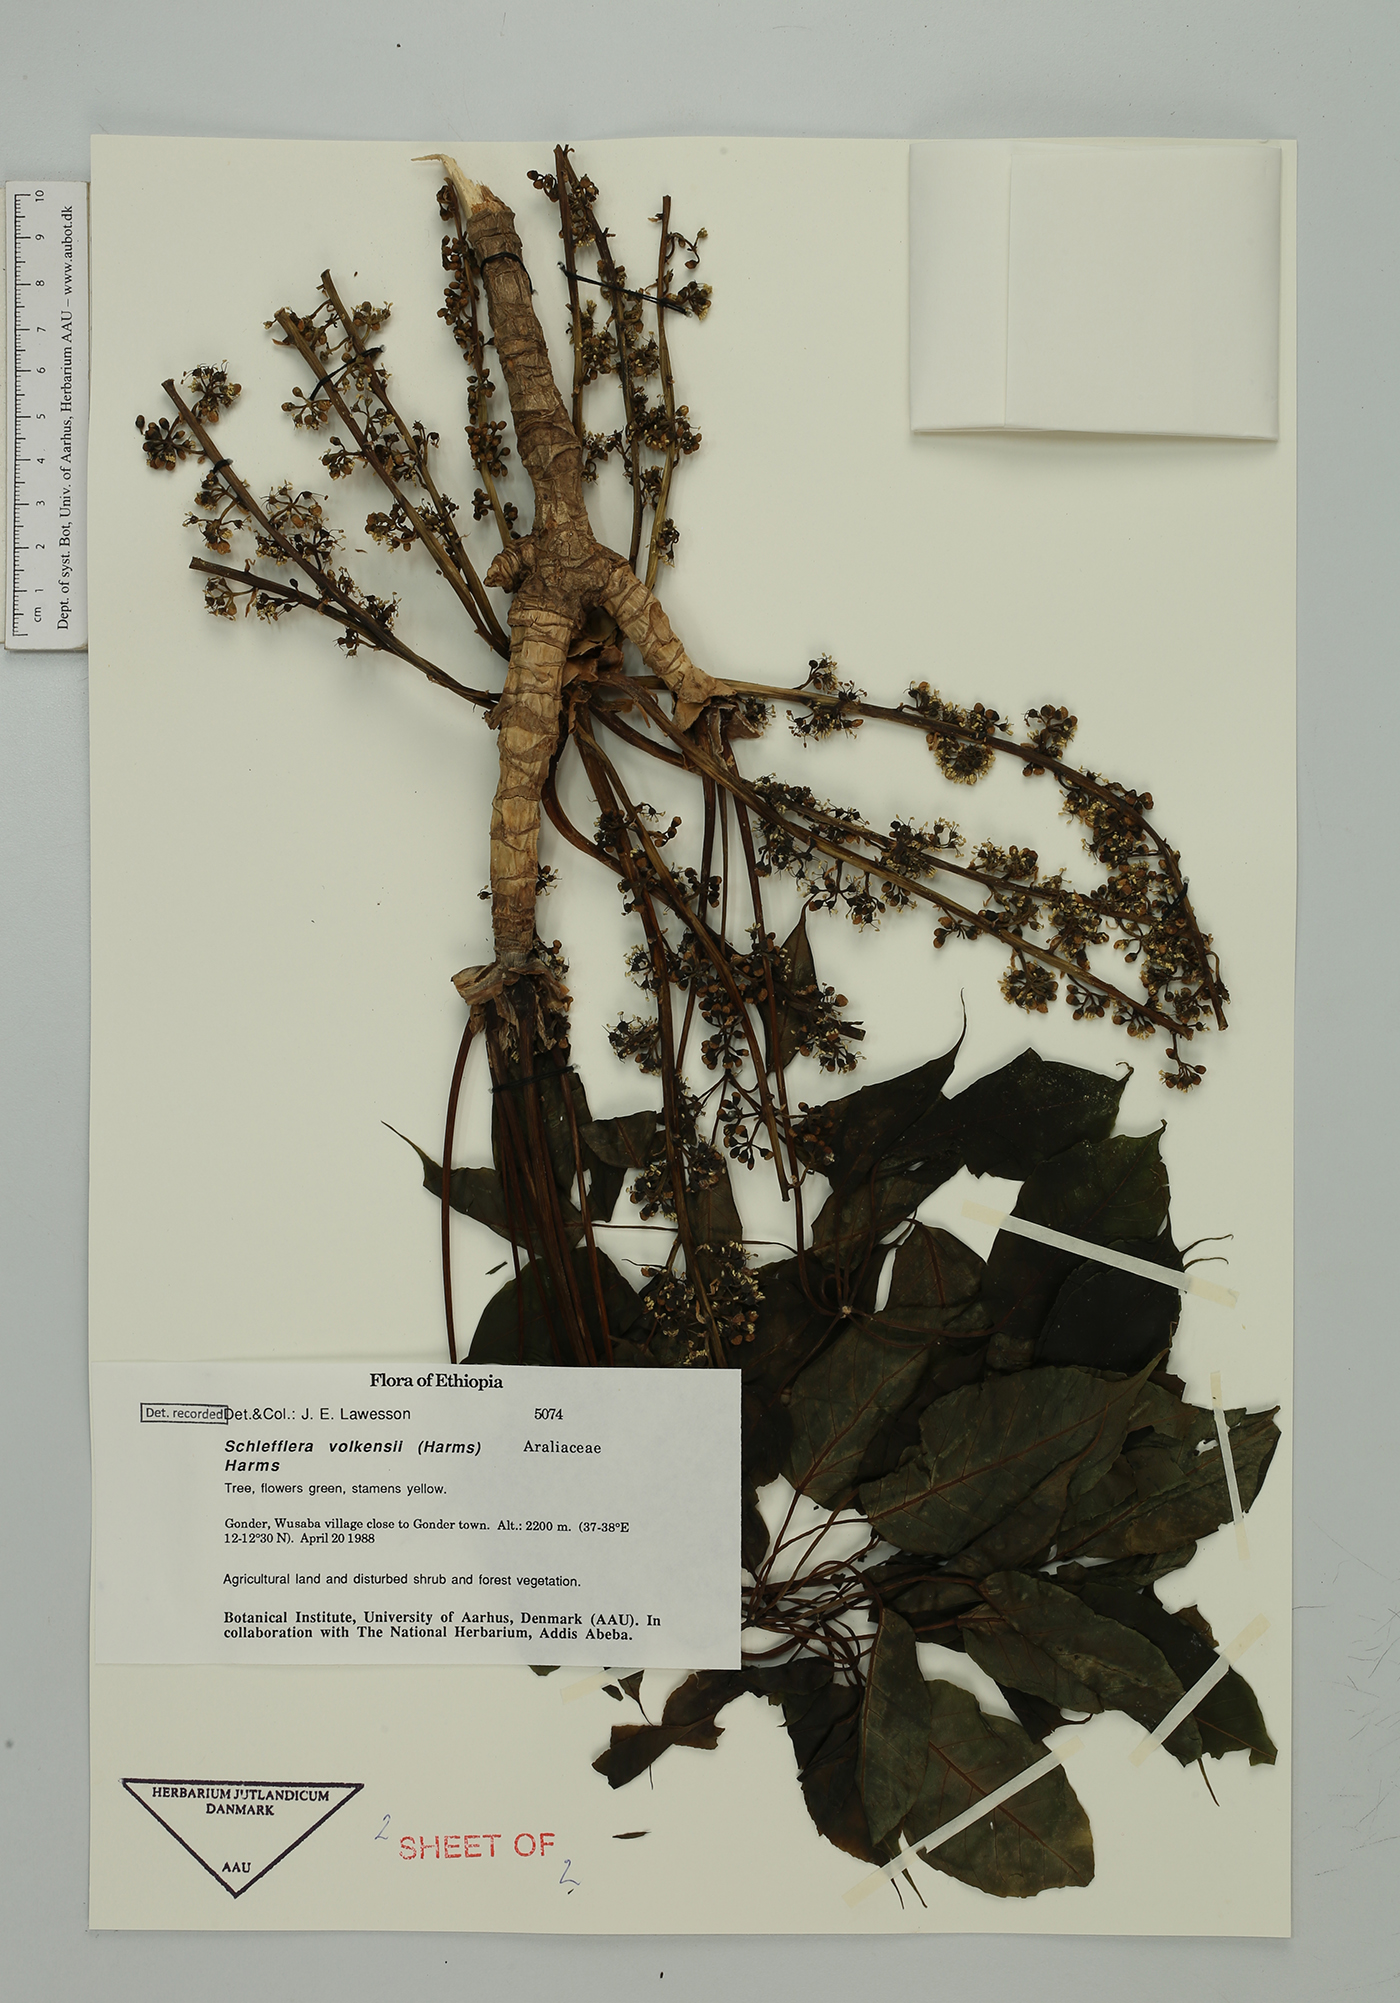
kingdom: Plantae
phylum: Tracheophyta
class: Magnoliopsida
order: Apiales
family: Araliaceae
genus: Astropanax
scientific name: Astropanax volkensii
